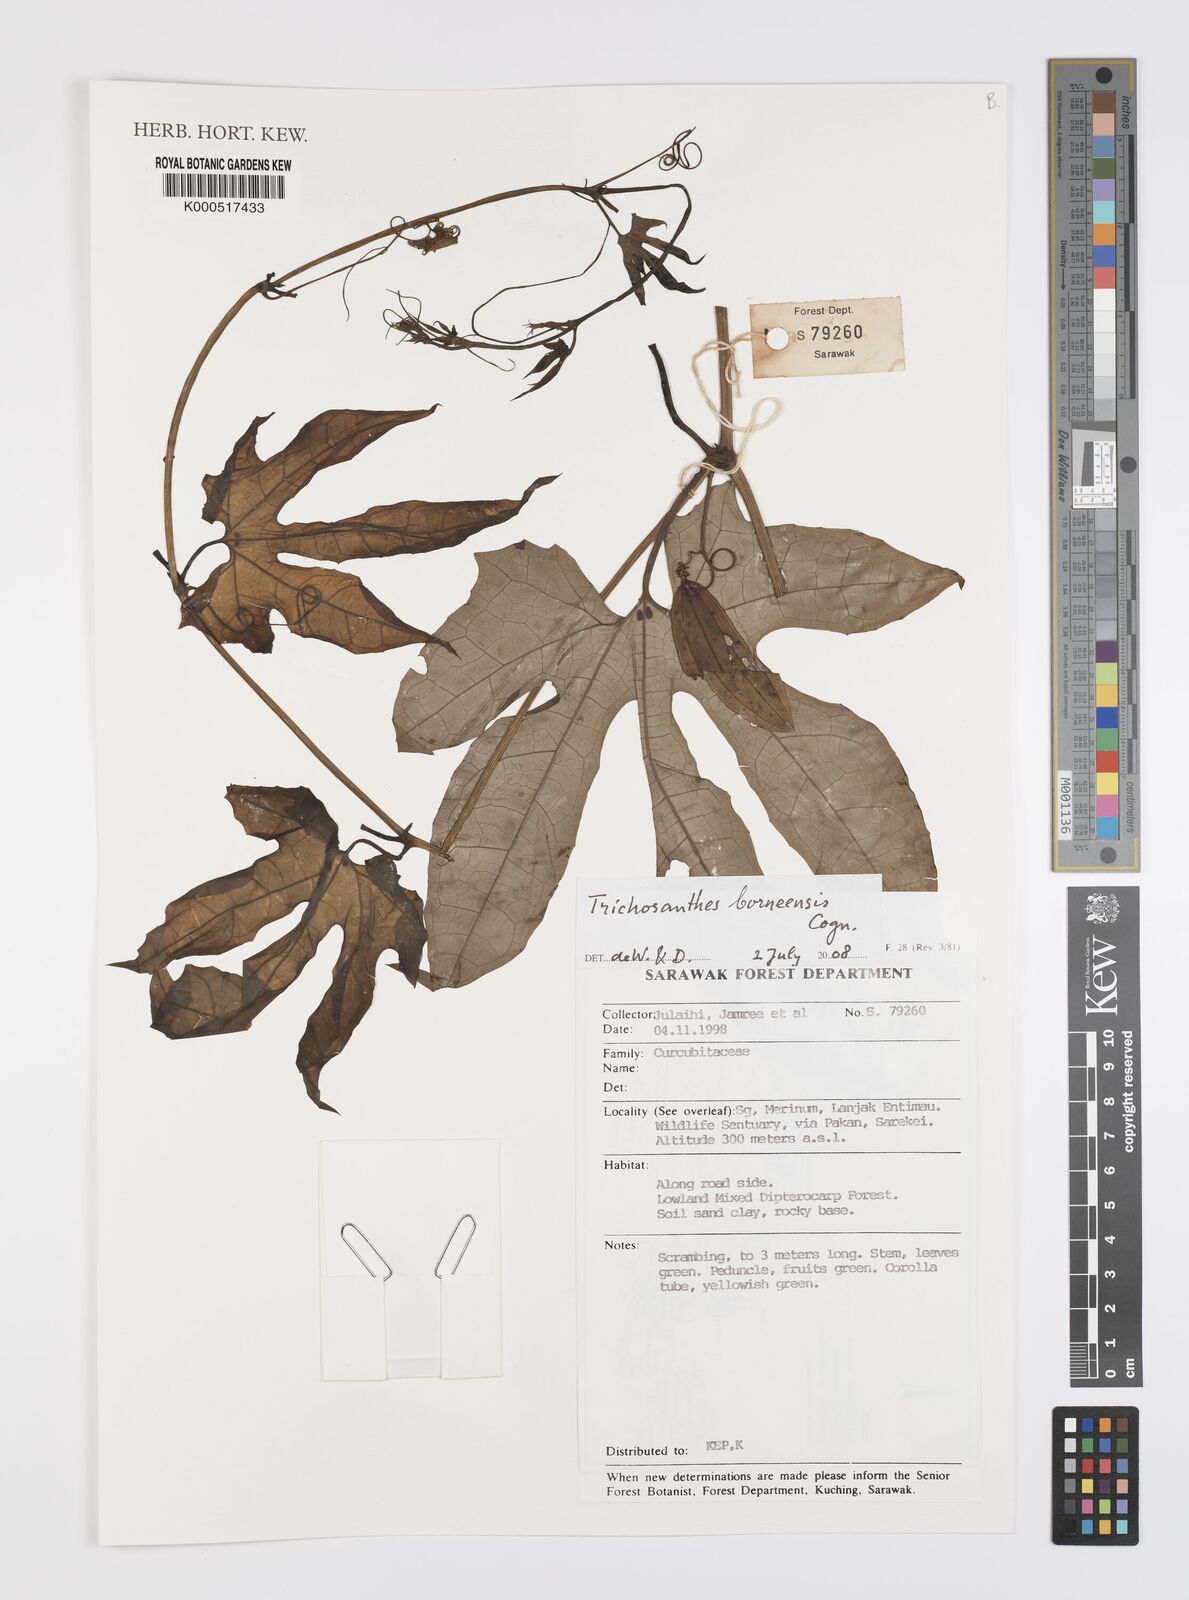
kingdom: Plantae
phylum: Tracheophyta
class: Magnoliopsida
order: Cucurbitales
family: Cucurbitaceae
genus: Trichosanthes
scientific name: Trichosanthes borneensis
